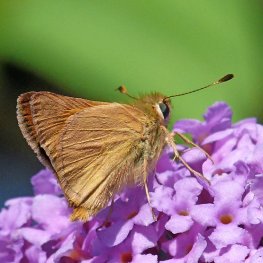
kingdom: Animalia
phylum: Arthropoda
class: Insecta
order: Lepidoptera
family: Hesperiidae
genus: Ochlodes
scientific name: Ochlodes sylvanoides
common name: Woodland Skipper
